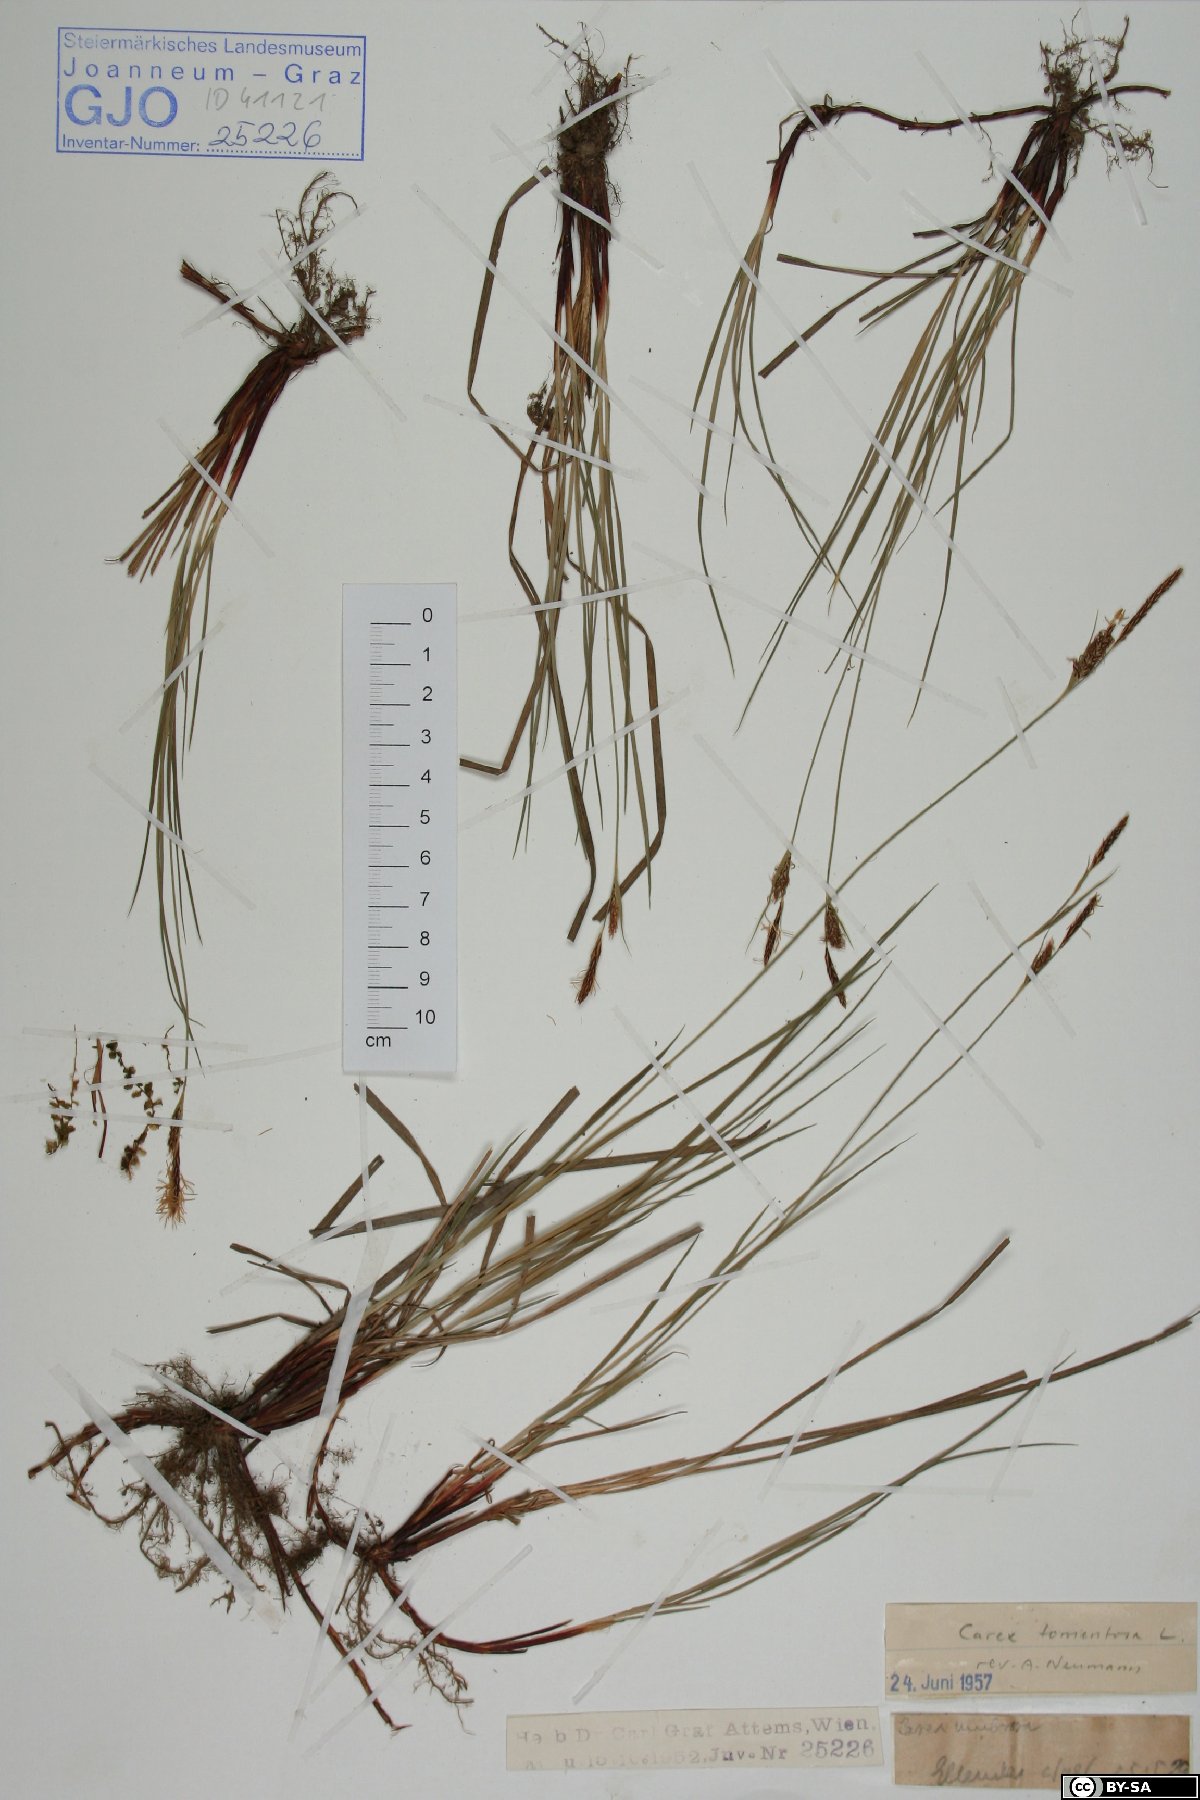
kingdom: Plantae
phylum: Tracheophyta
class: Liliopsida
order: Poales
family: Cyperaceae
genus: Carex
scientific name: Carex tomentosa
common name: Downy-fruited sedge
